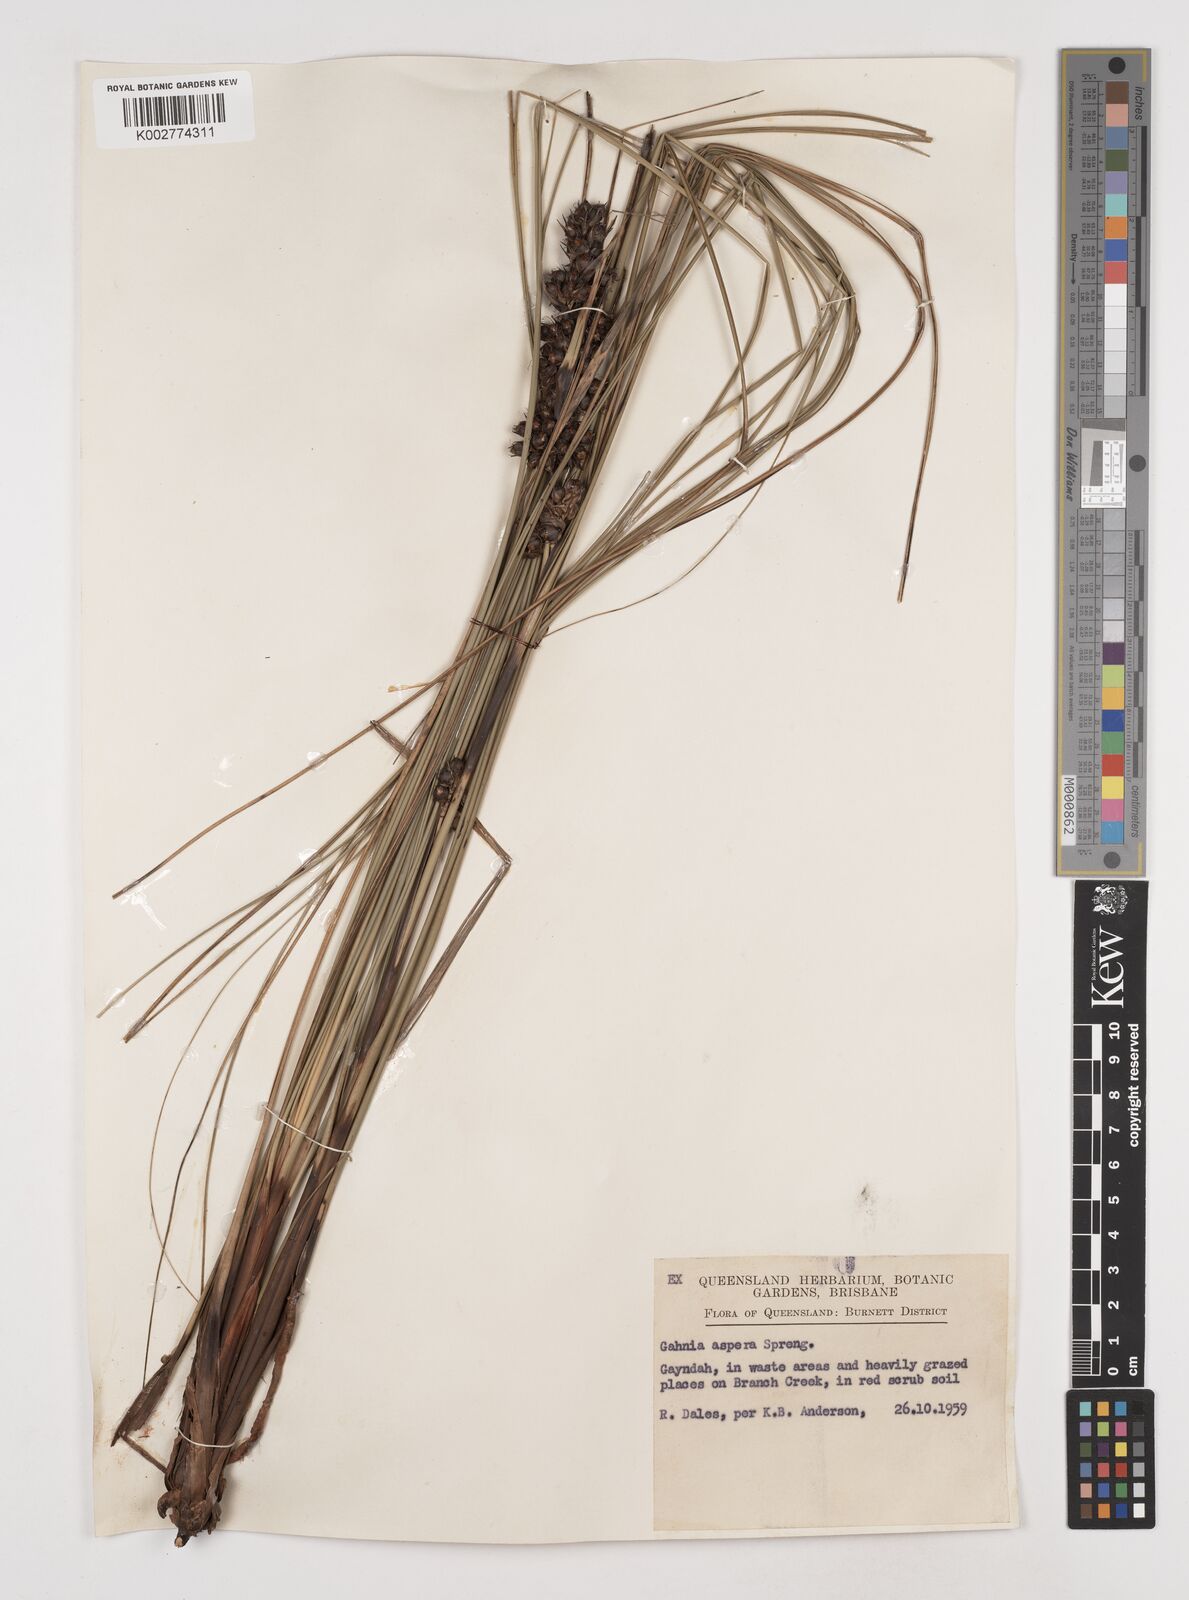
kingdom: Plantae
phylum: Tracheophyta
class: Liliopsida
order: Poales
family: Cyperaceae
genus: Gahnia
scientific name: Gahnia aspera
